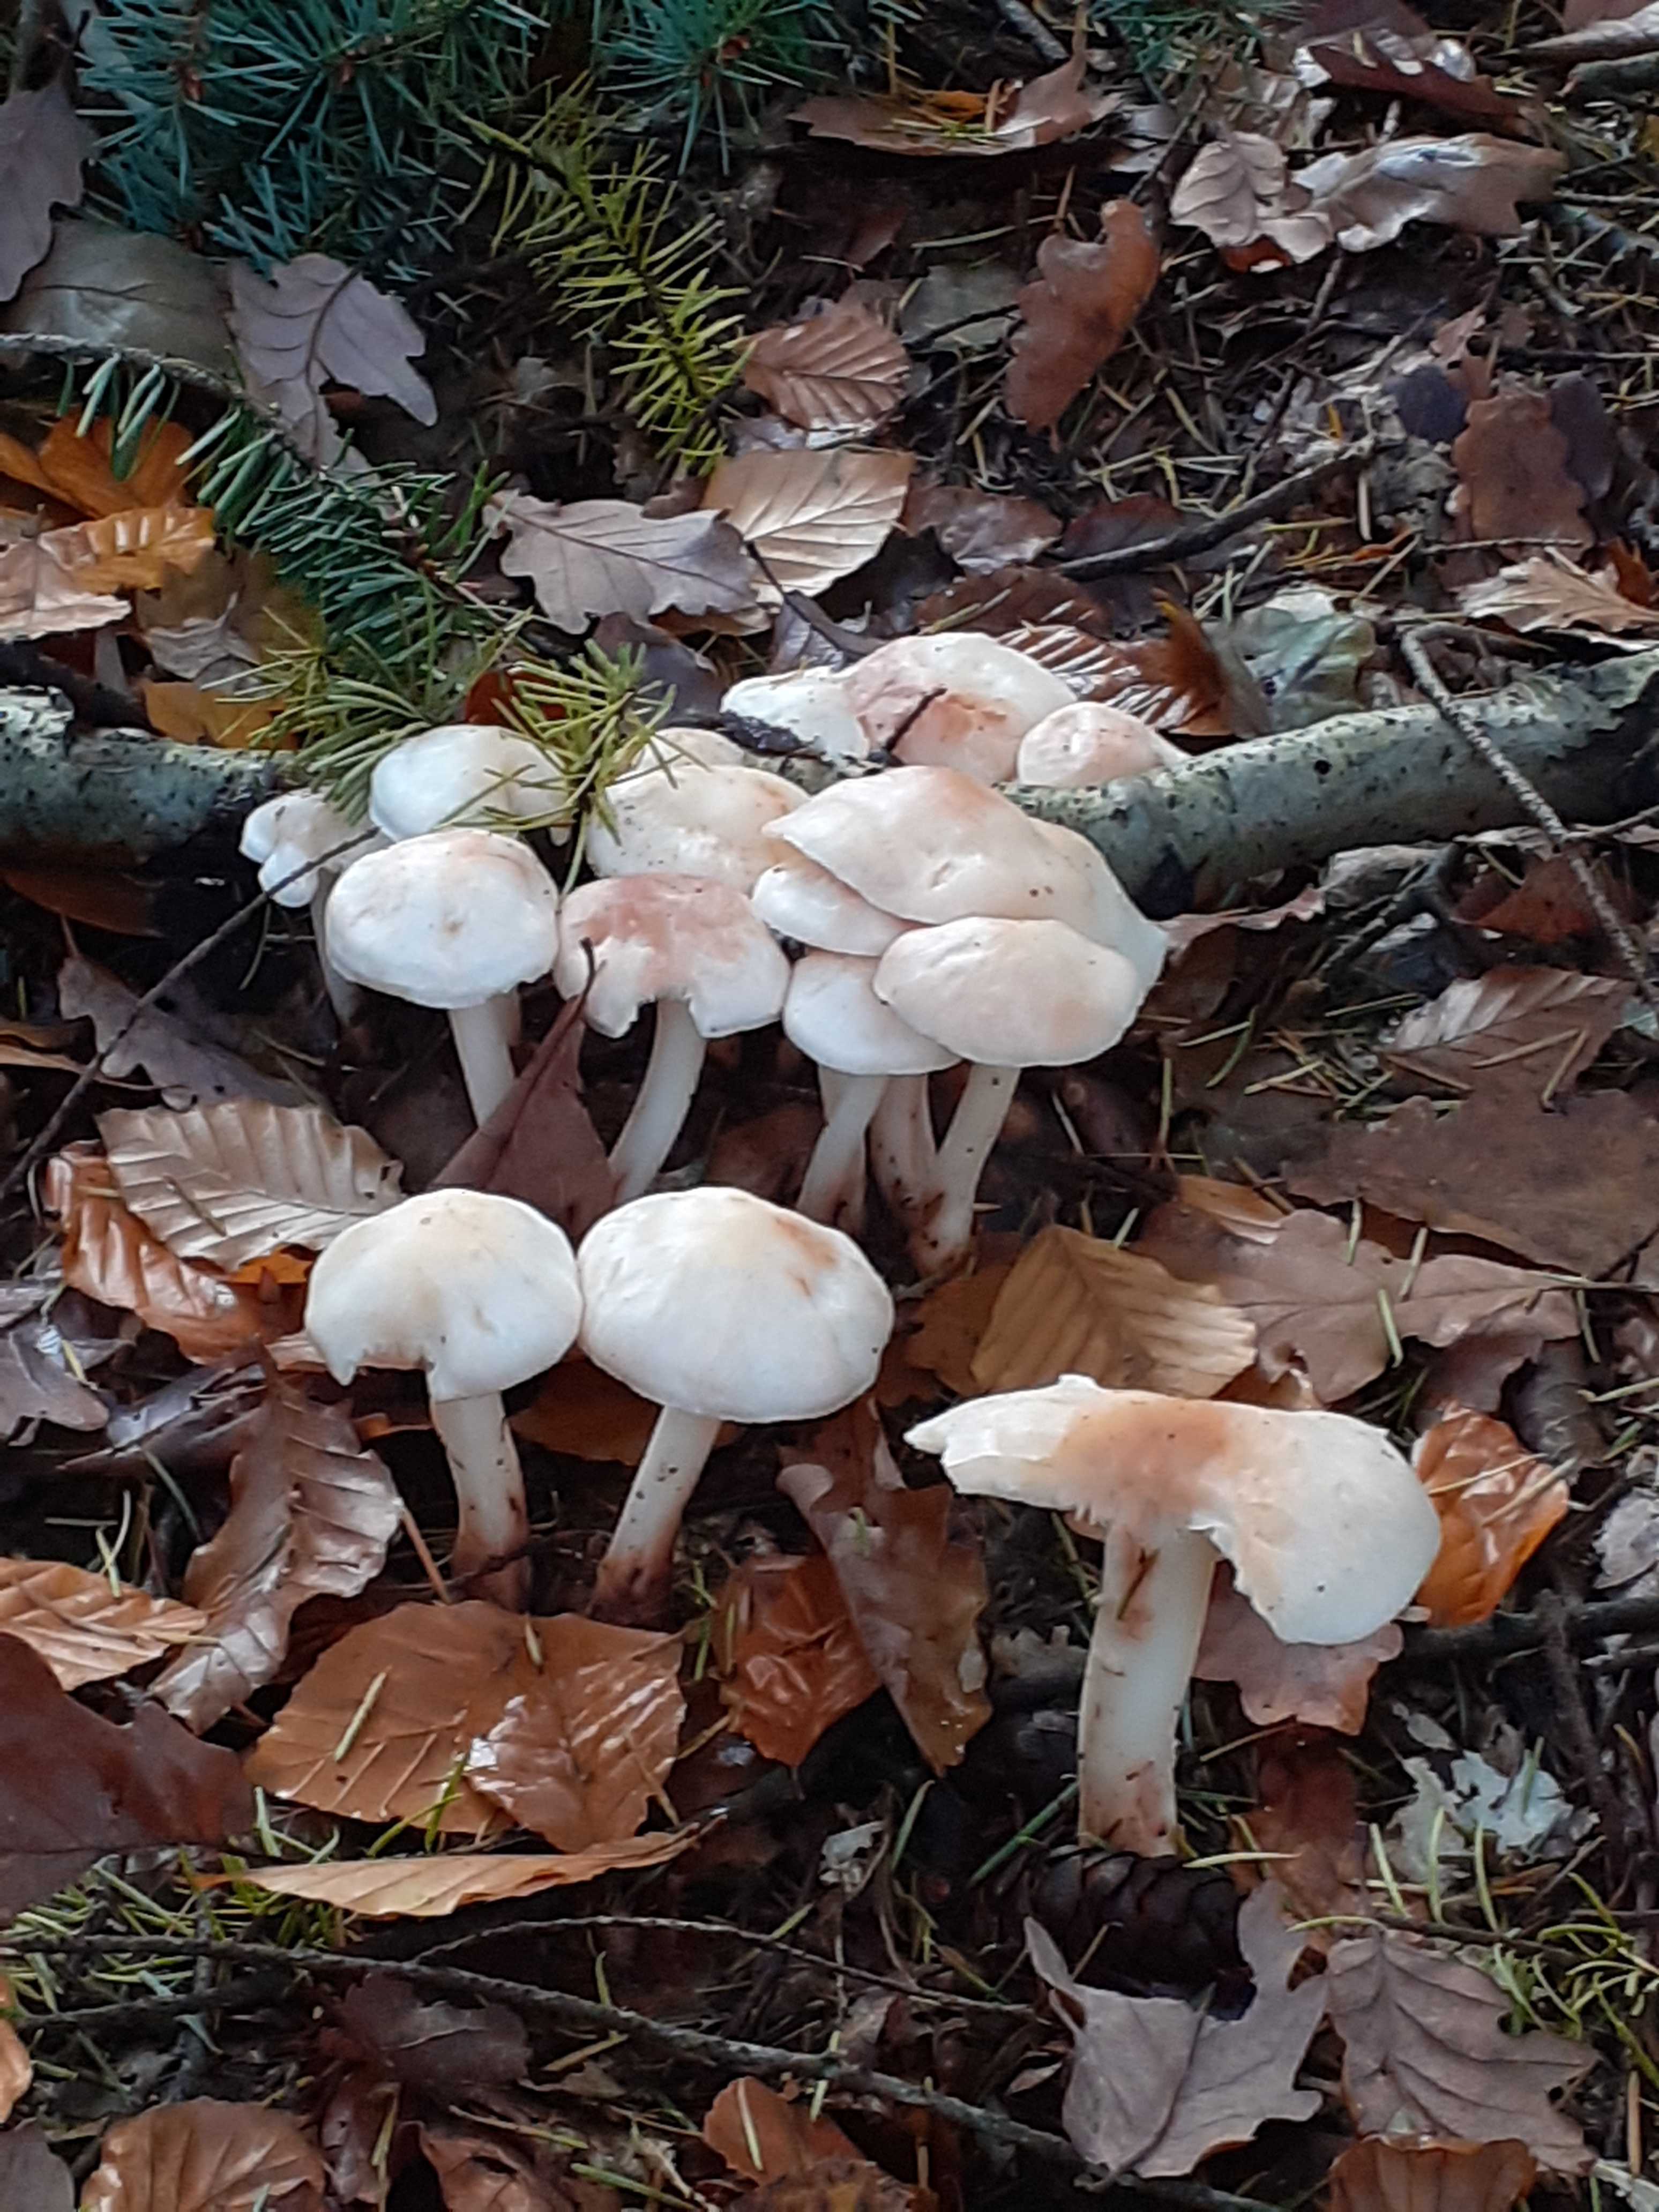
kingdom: Fungi
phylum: Basidiomycota
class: Agaricomycetes
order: Agaricales
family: Omphalotaceae
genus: Rhodocollybia
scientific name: Rhodocollybia maculata
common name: plettet fladhat
